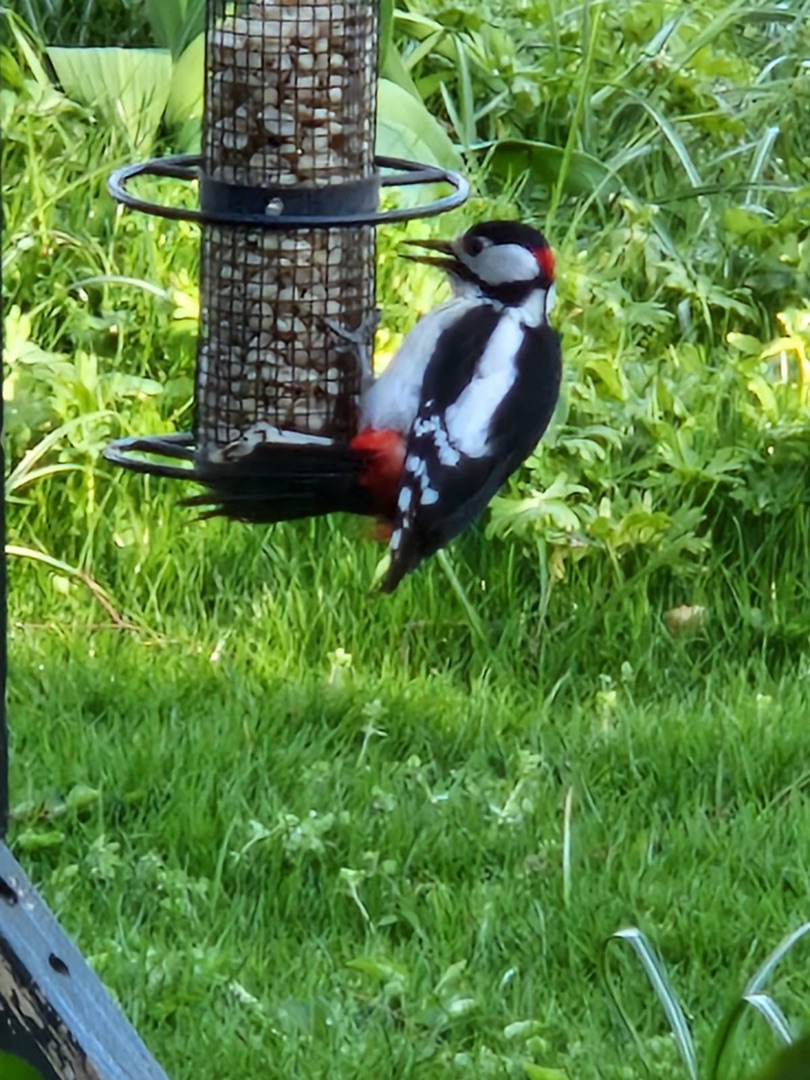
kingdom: Animalia
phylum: Chordata
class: Aves
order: Piciformes
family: Picidae
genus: Dendrocopos
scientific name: Dendrocopos major
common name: Stor flagspætte
